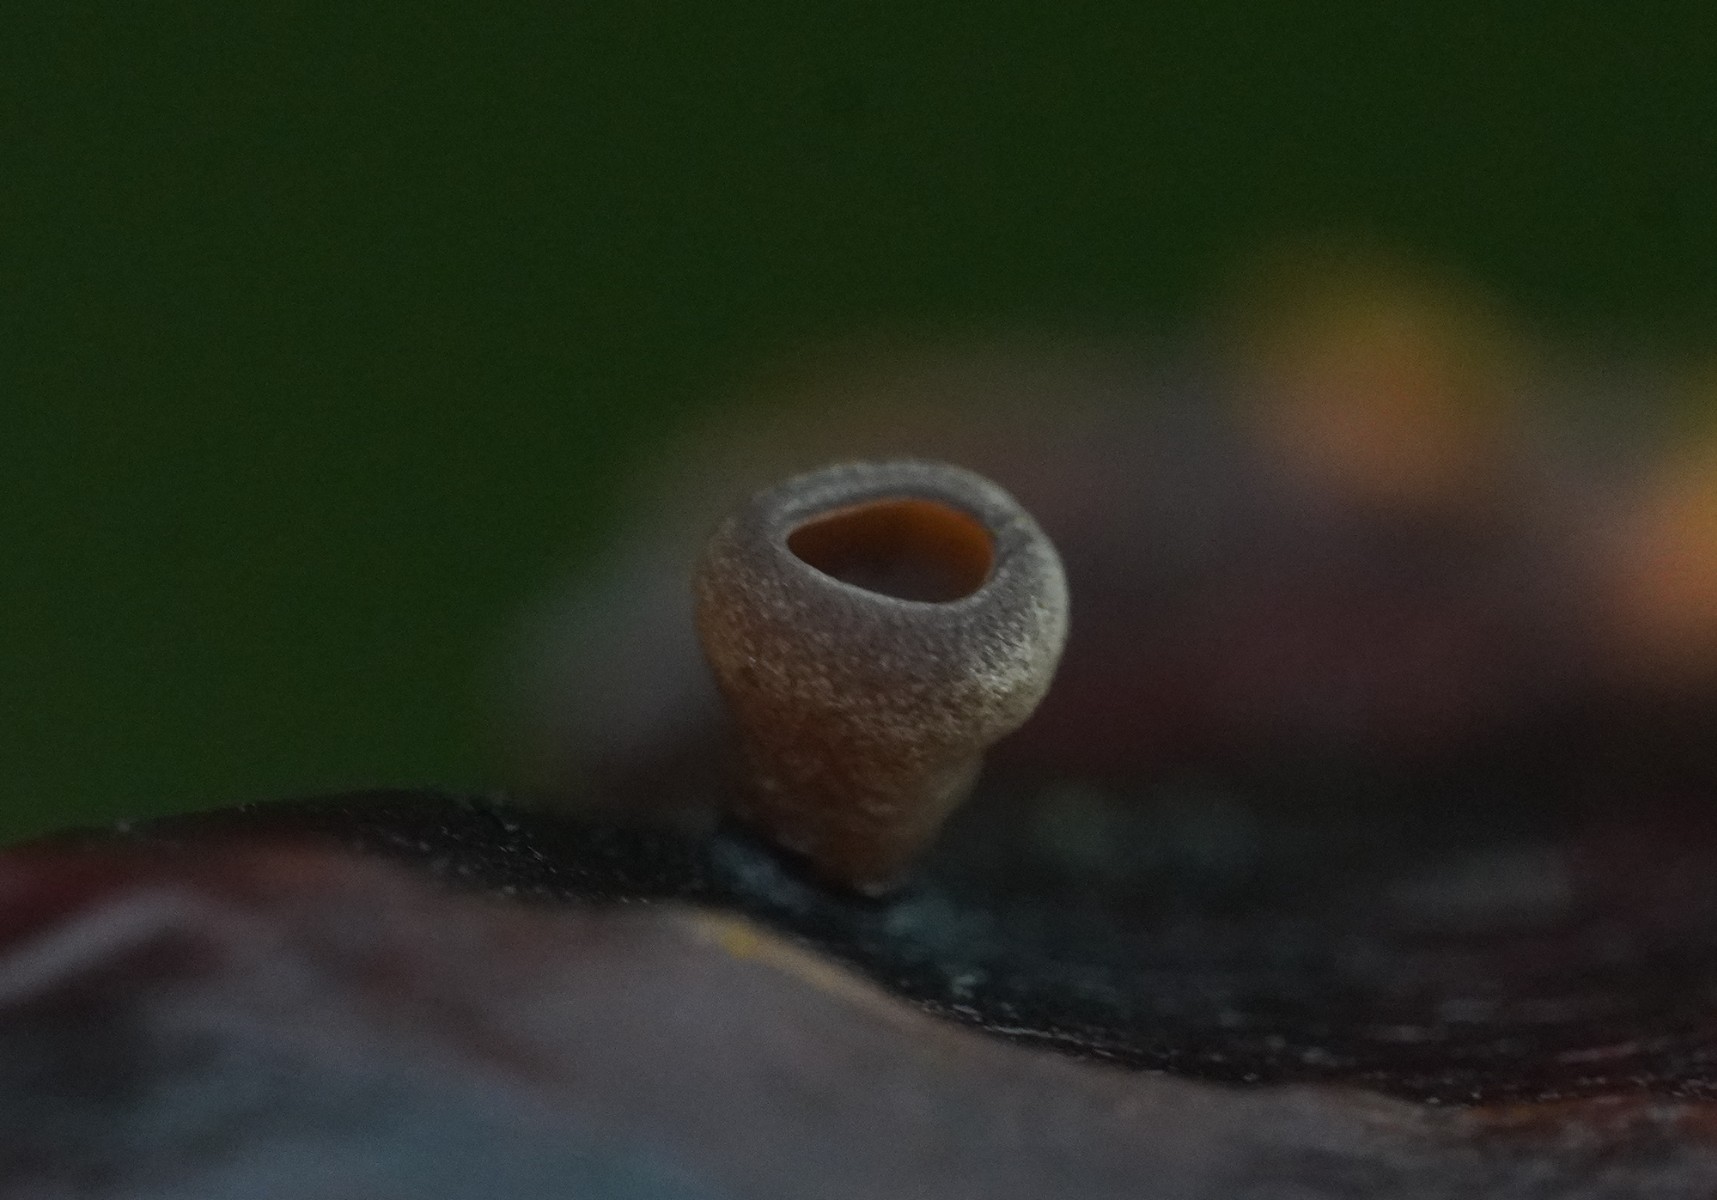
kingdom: Fungi
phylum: Ascomycota
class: Leotiomycetes
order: Helotiales
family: Sclerotiniaceae
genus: Ciboria
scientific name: Ciboria rufofusca
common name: kogleskæl-knoldskive
